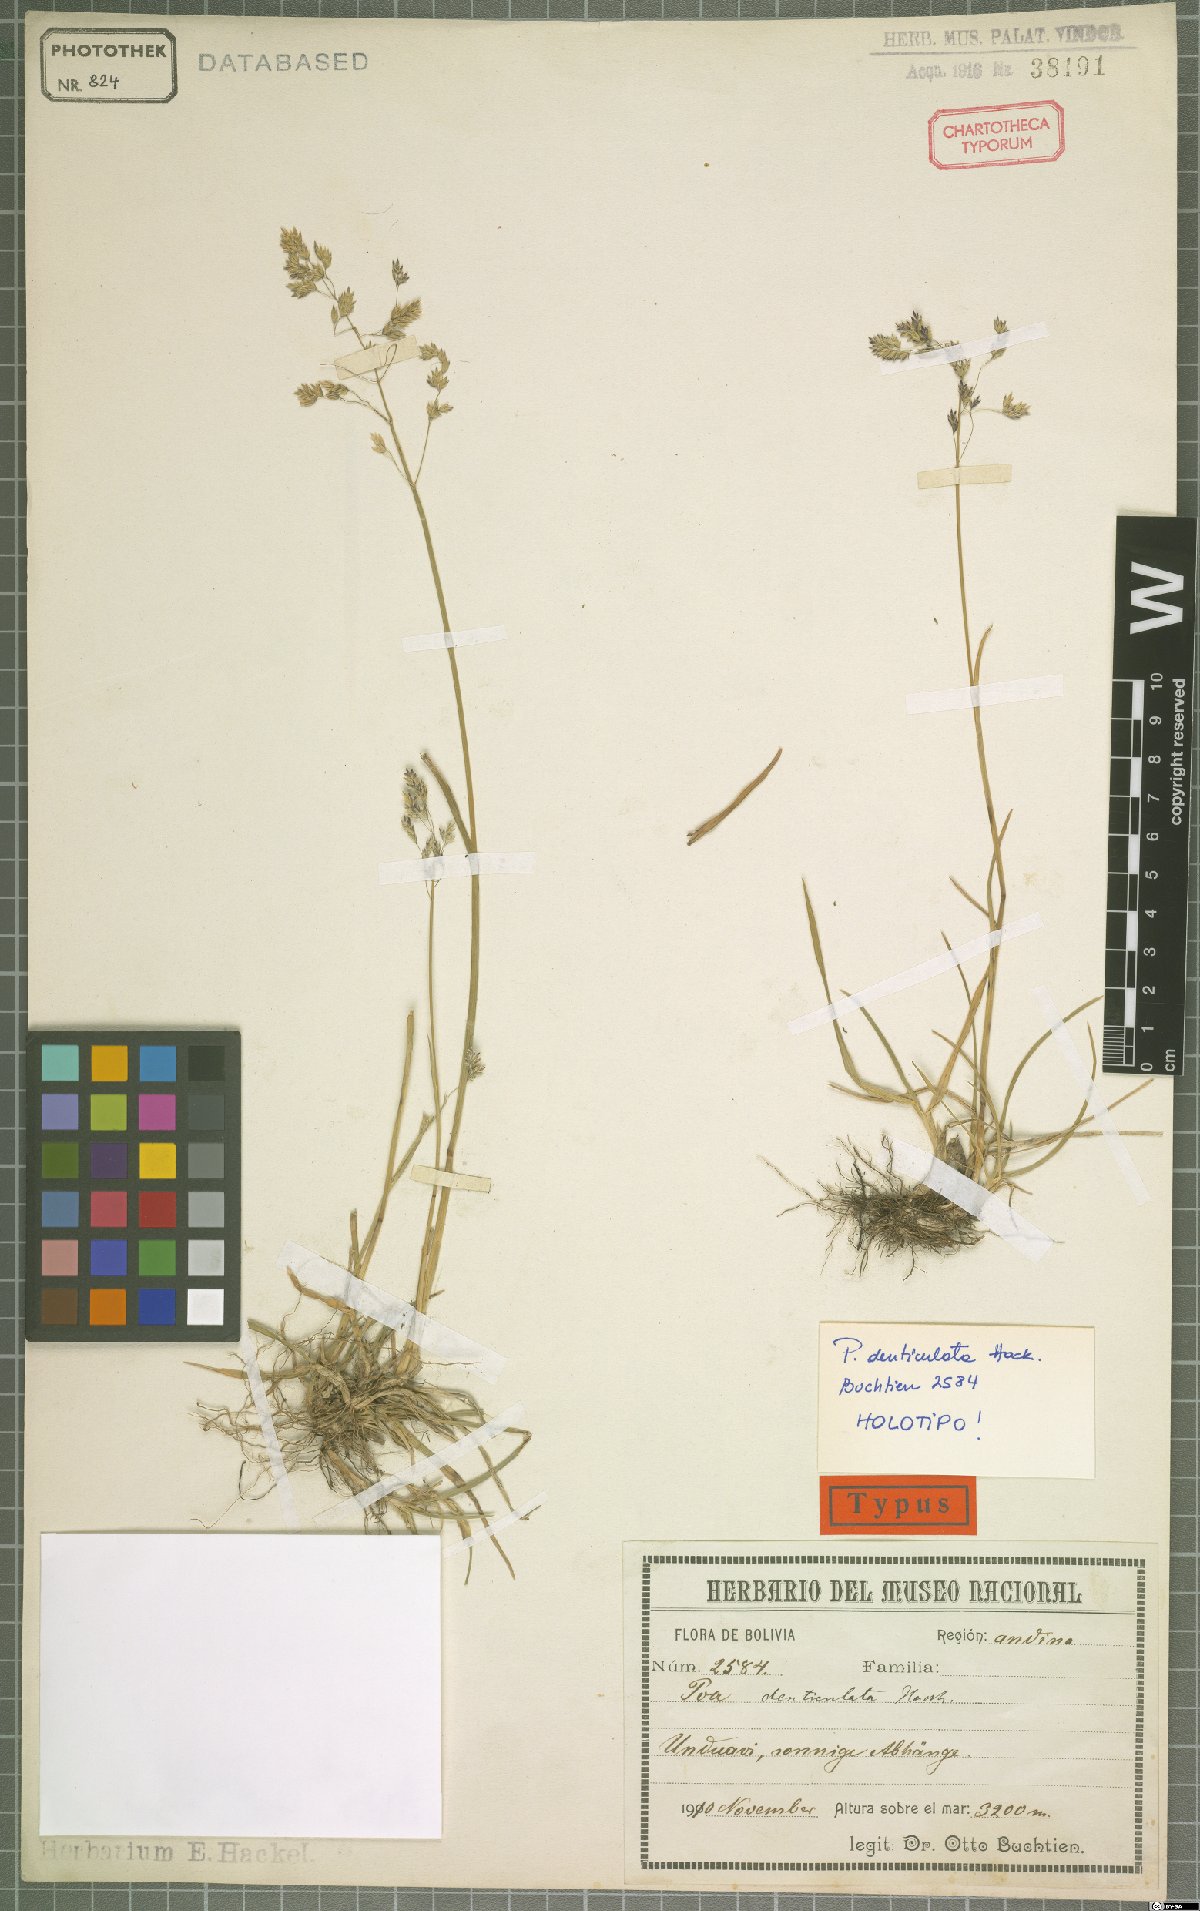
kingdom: Plantae
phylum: Tracheophyta
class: Liliopsida
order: Poales
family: Poaceae
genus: Poa
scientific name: Poa denticulata
